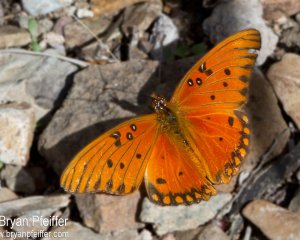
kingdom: Animalia
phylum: Arthropoda
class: Insecta
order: Lepidoptera
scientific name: Lepidoptera
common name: Butterflies
